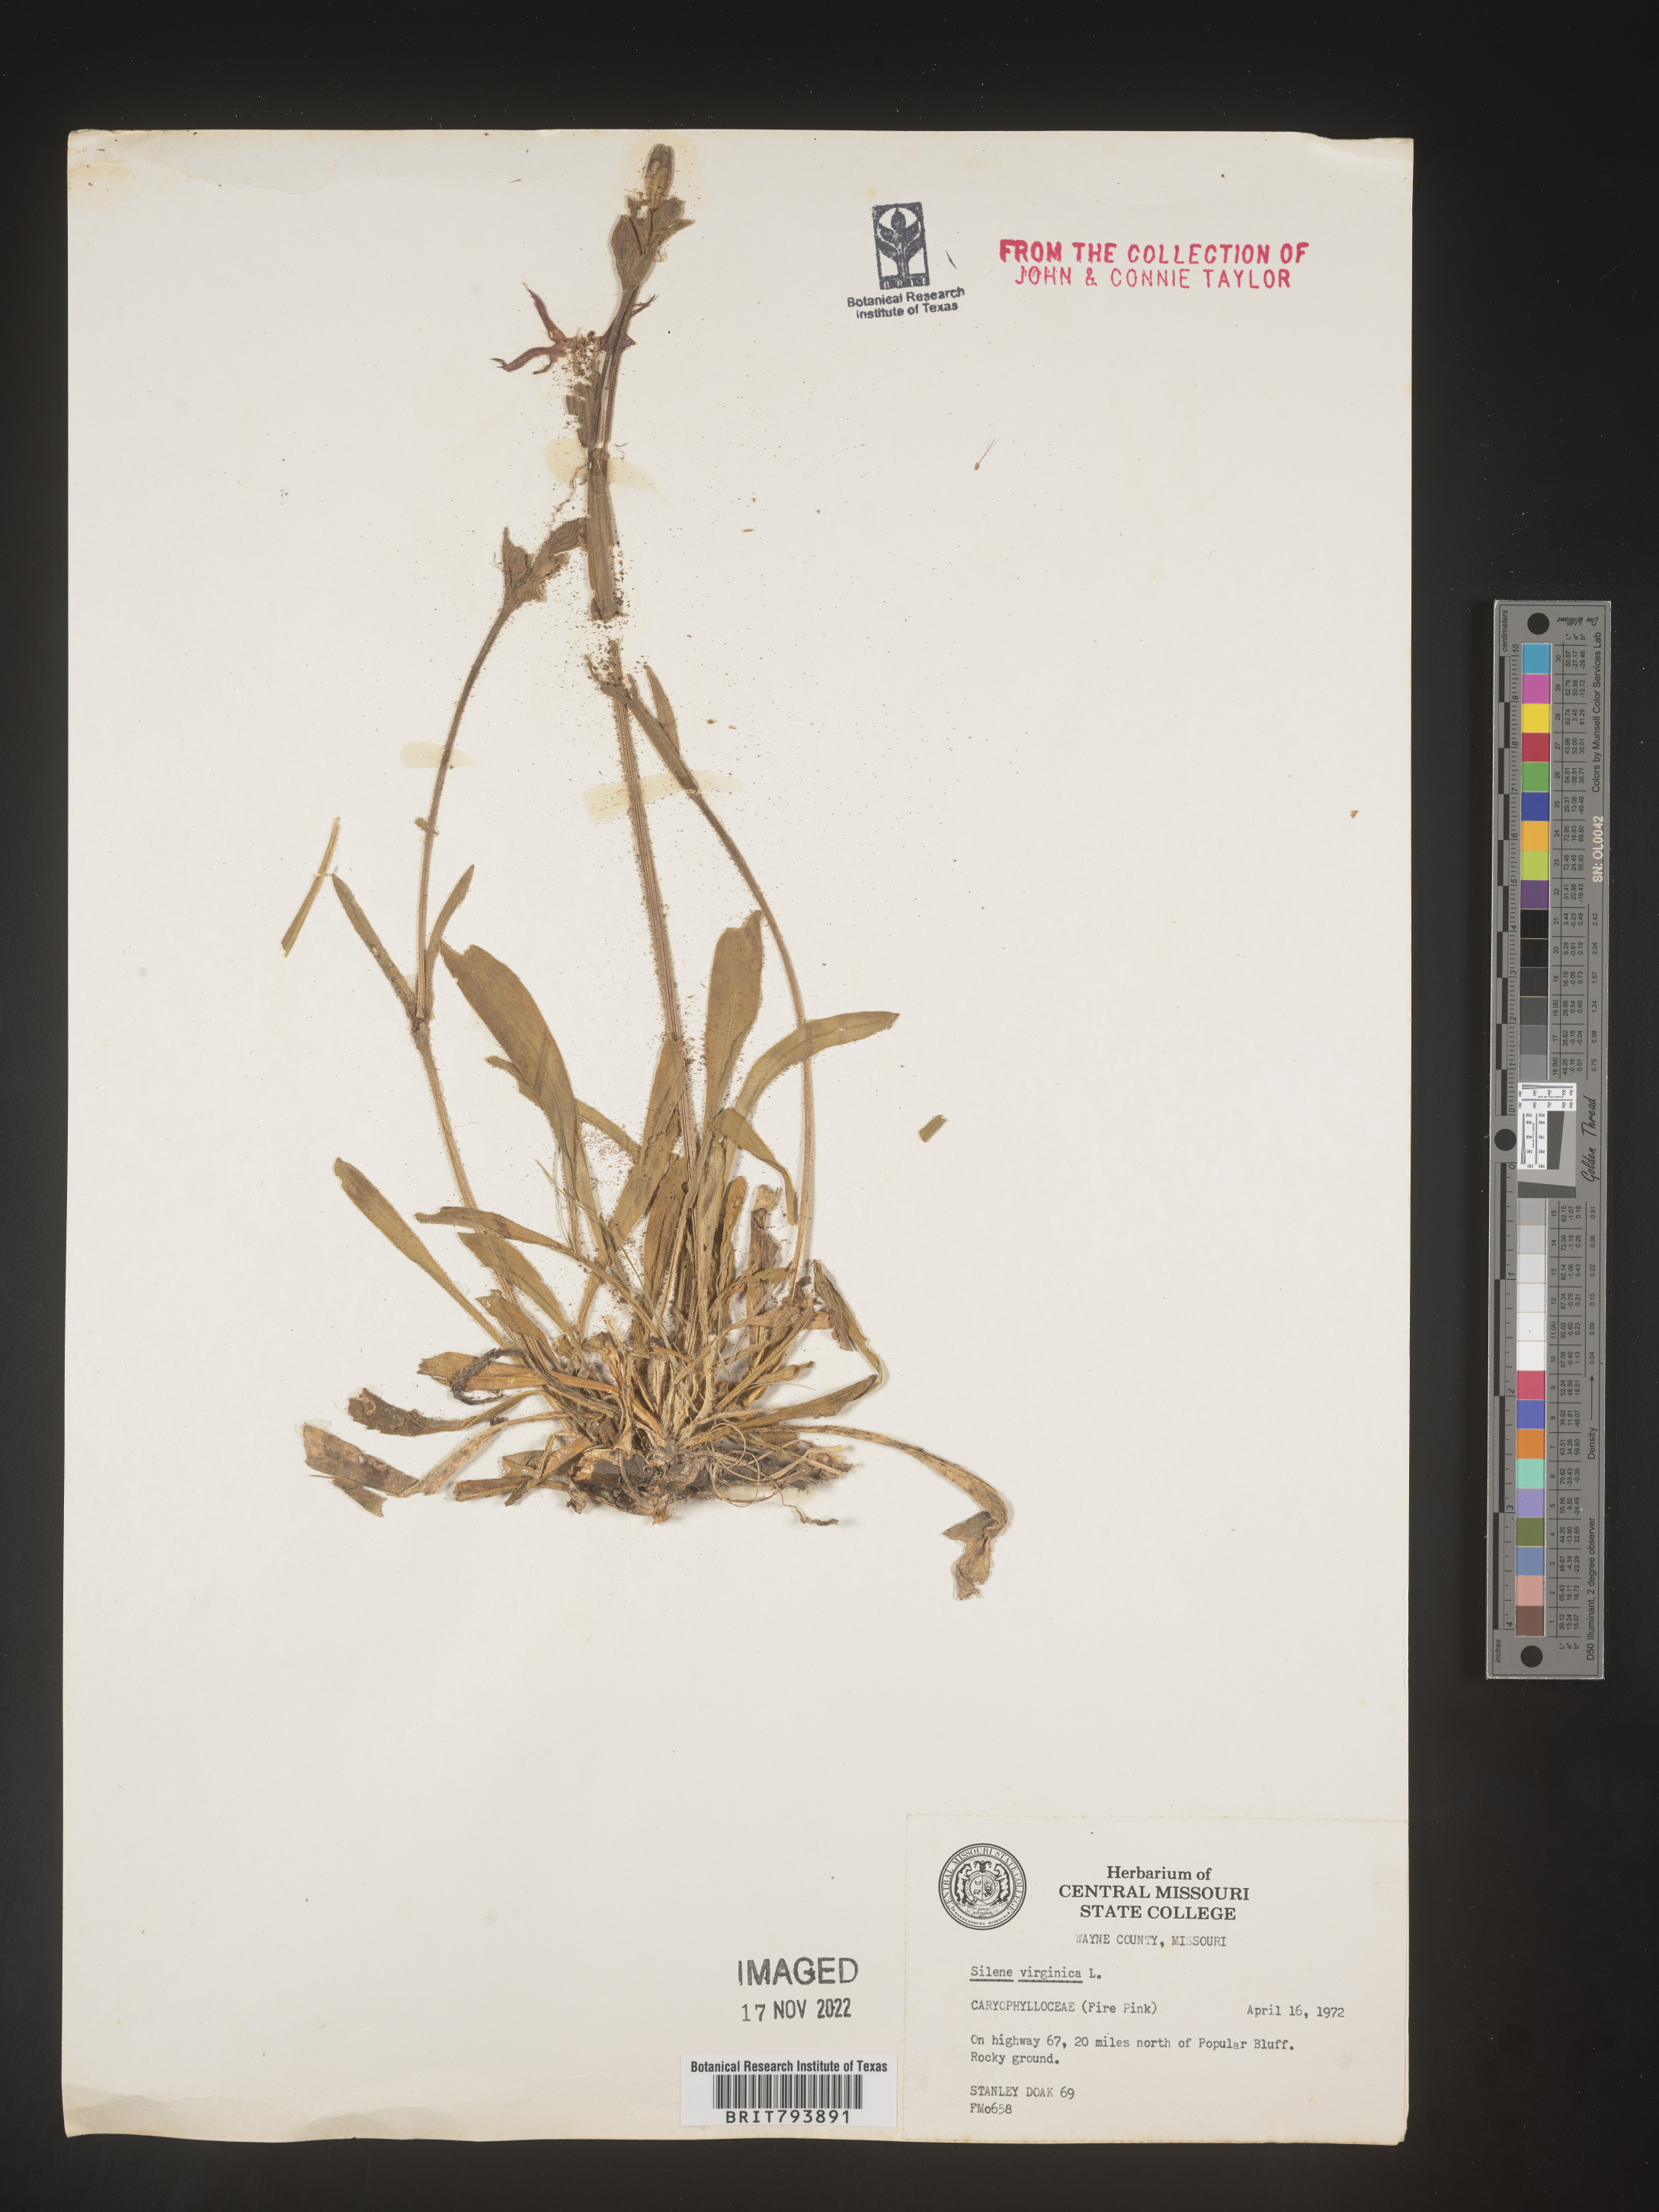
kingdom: Plantae
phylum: Tracheophyta
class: Magnoliopsida
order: Caryophyllales
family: Caryophyllaceae
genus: Silene
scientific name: Silene virginica
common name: Fire-pink
